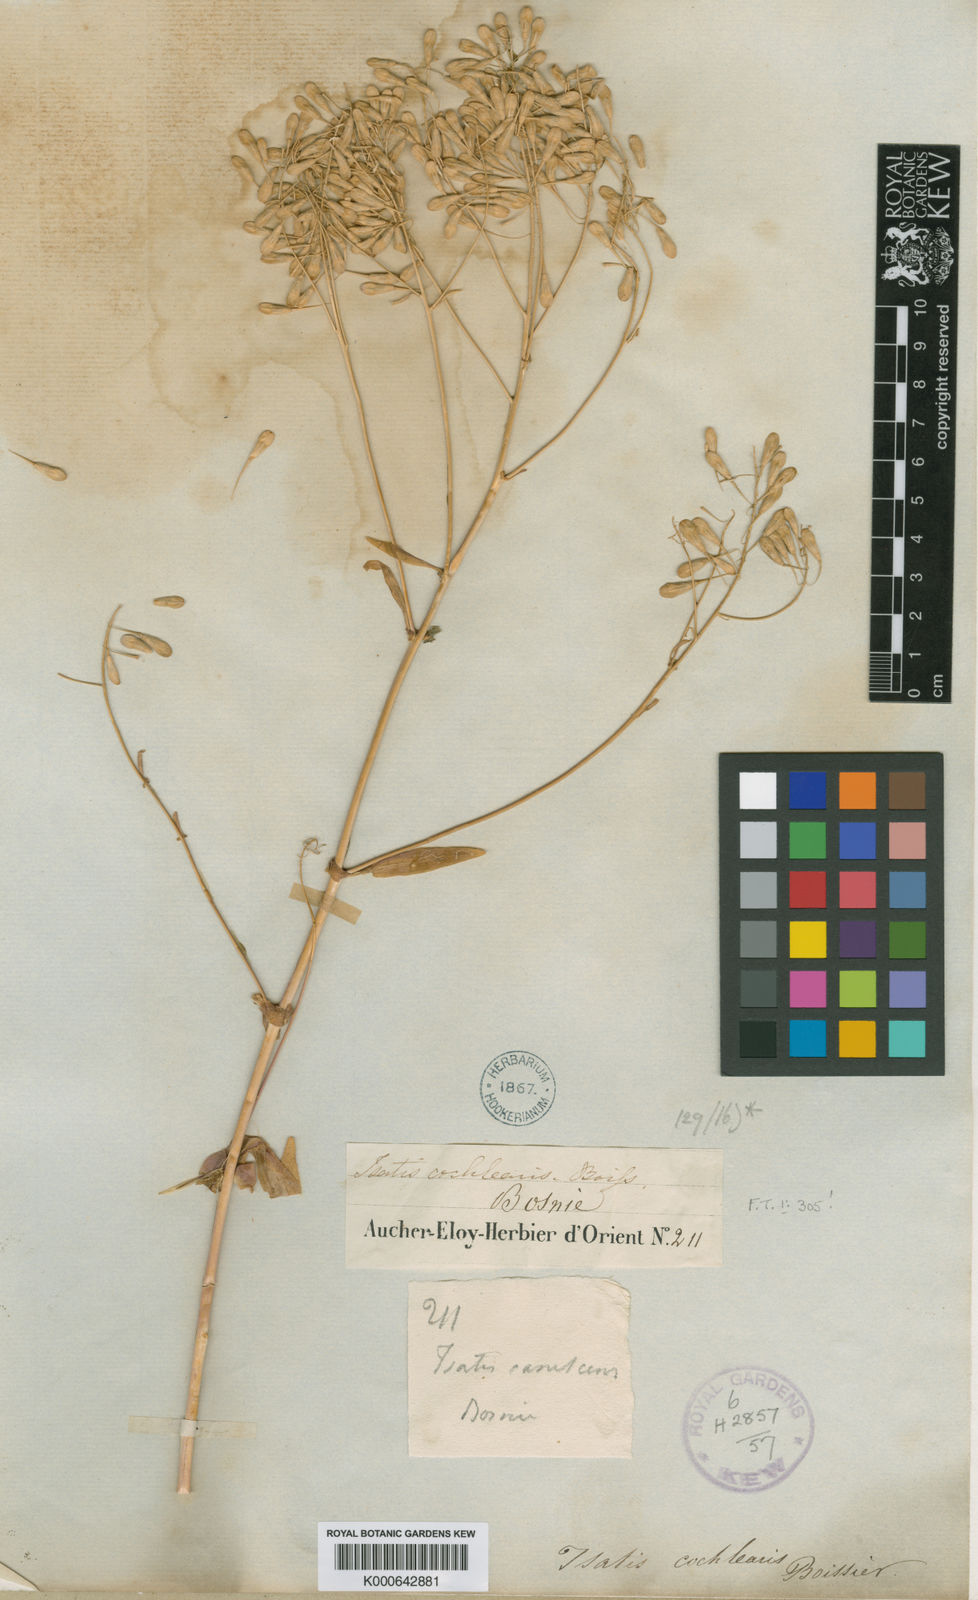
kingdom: Plantae
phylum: Tracheophyta
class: Magnoliopsida
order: Brassicales
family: Brassicaceae
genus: Isatis
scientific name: Isatis cochlearis
